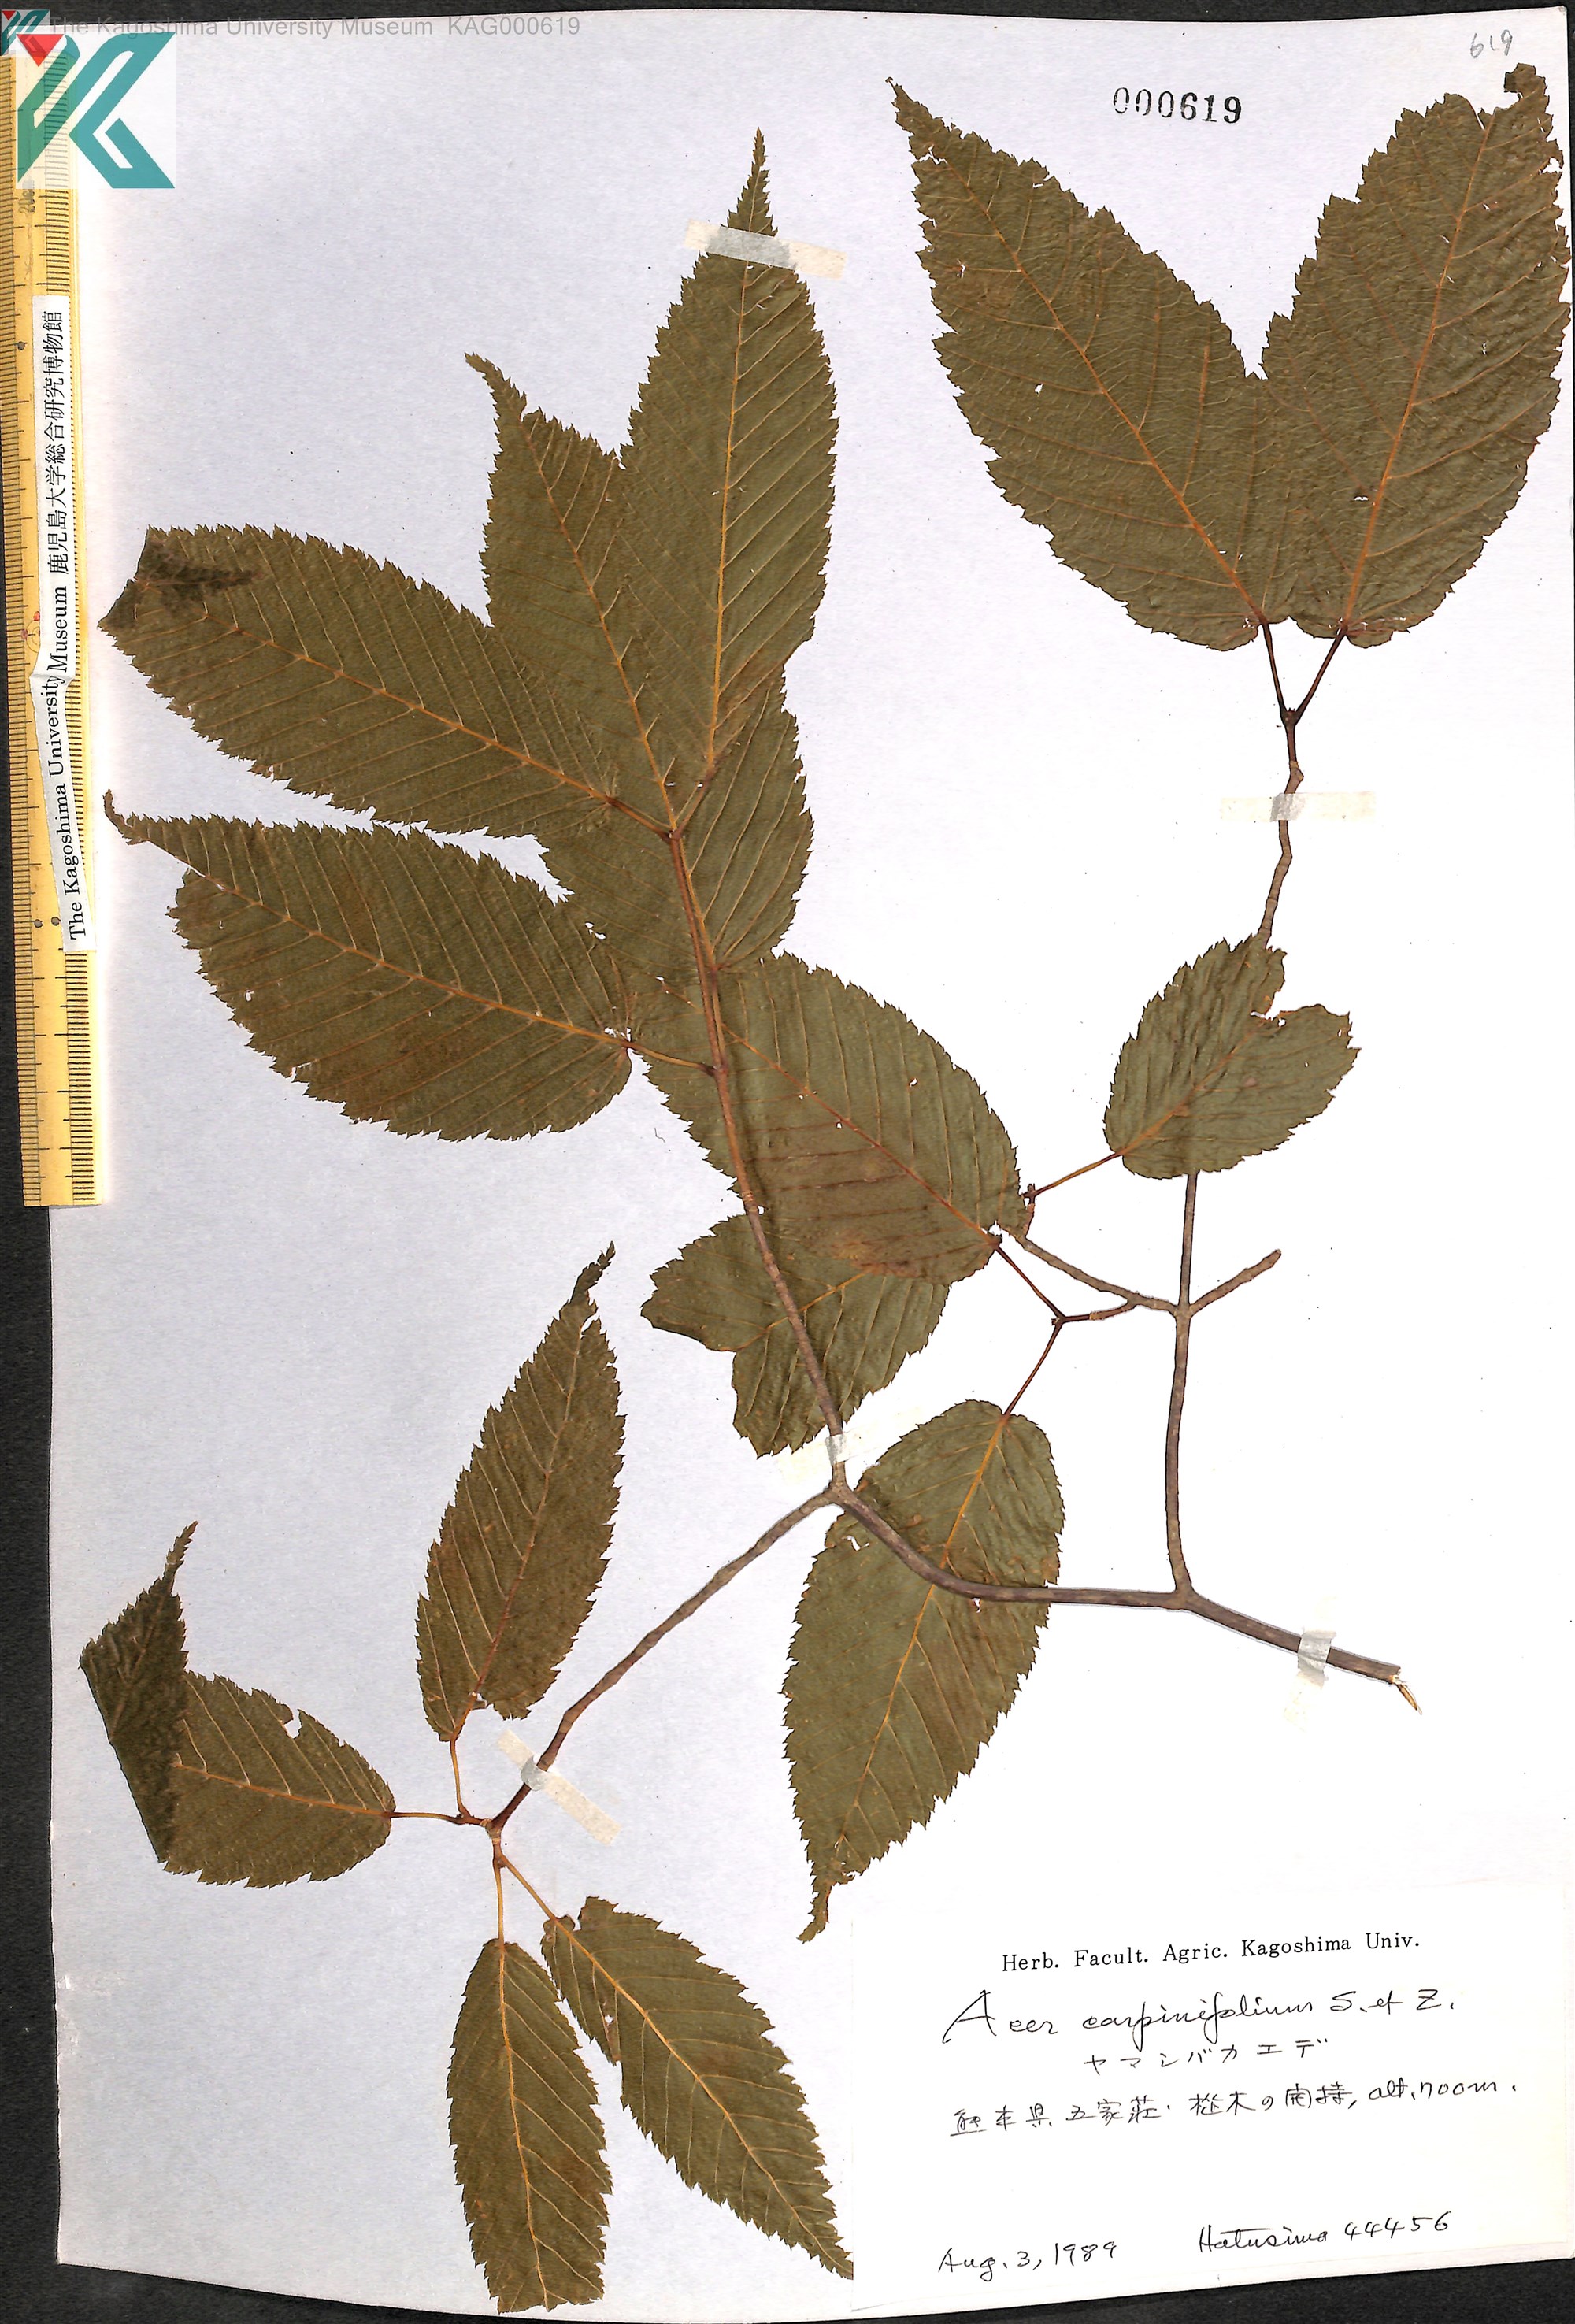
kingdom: Plantae
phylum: Tracheophyta
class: Magnoliopsida
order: Sapindales
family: Sapindaceae
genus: Acer
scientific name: Acer carpinifolium
